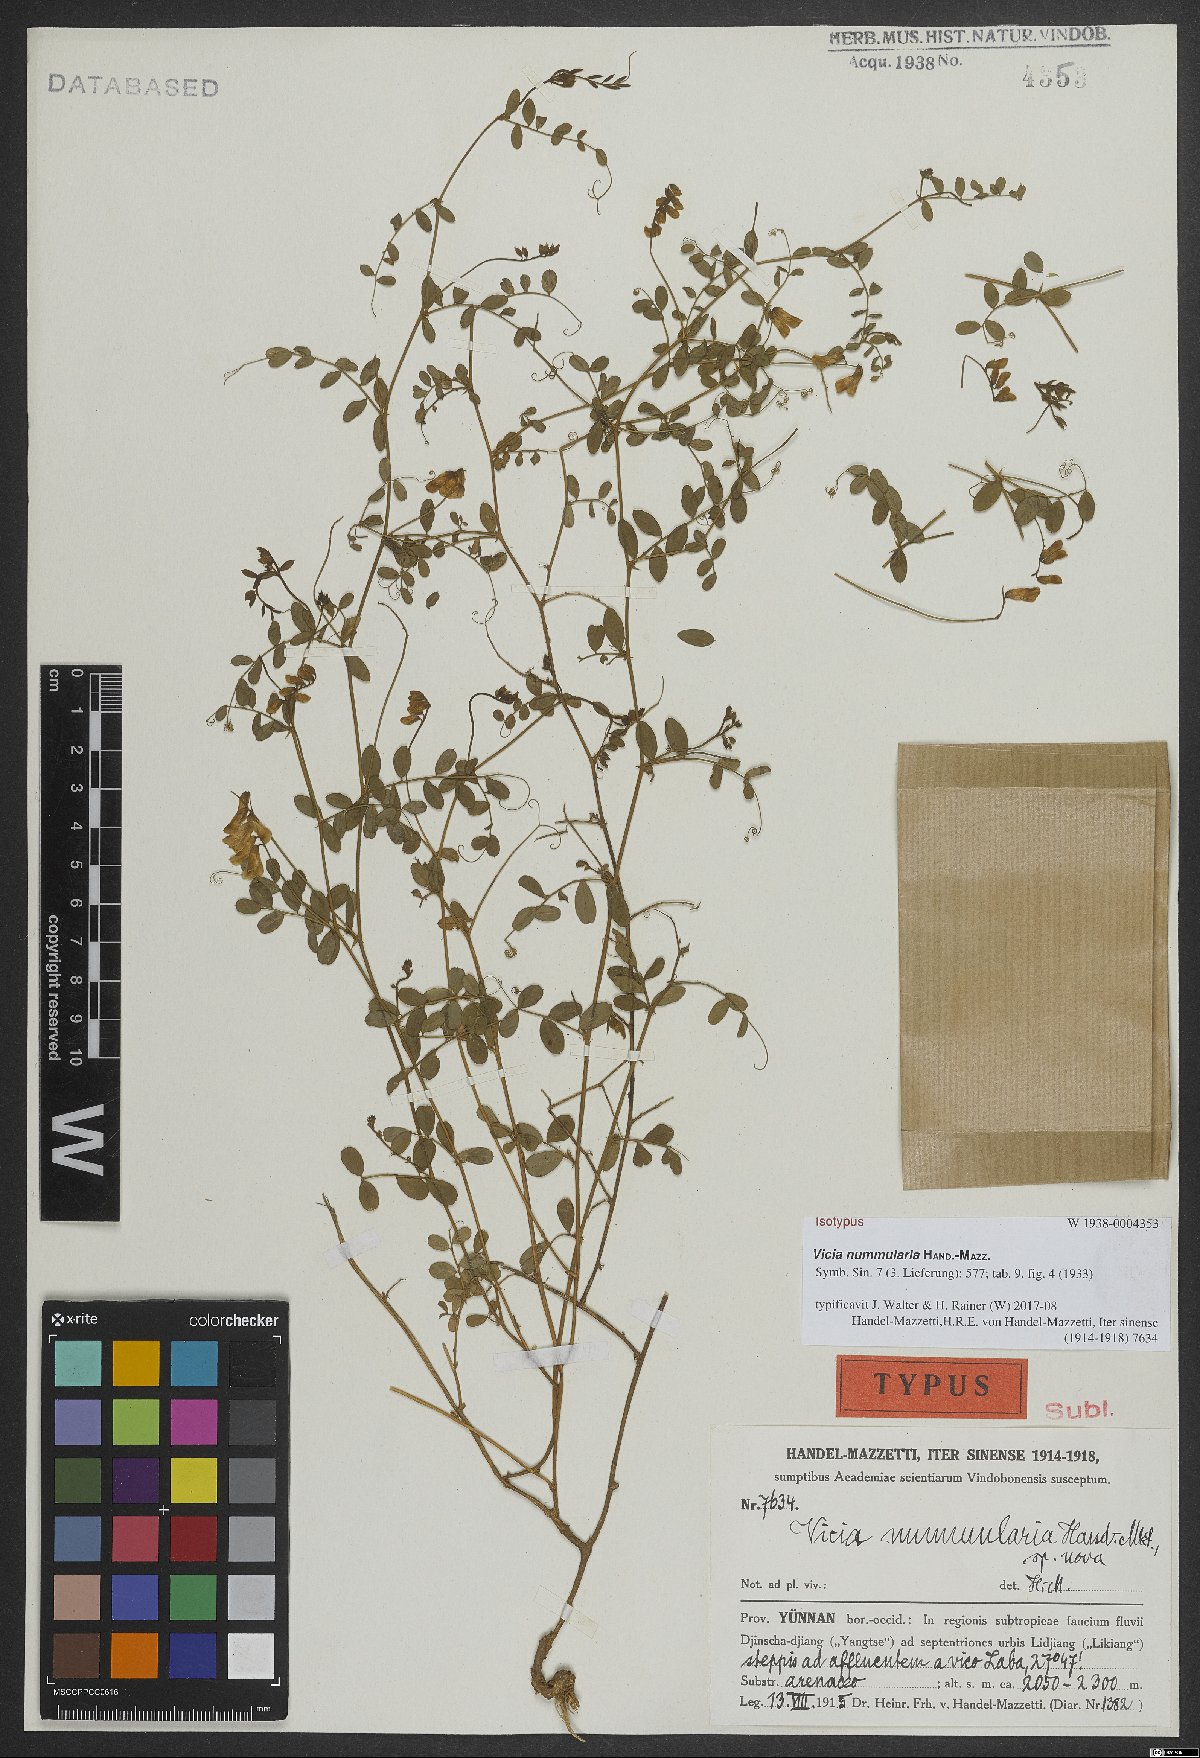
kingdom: Plantae
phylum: Tracheophyta
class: Magnoliopsida
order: Fabales
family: Fabaceae
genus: Vicia
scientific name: Vicia nummularia
